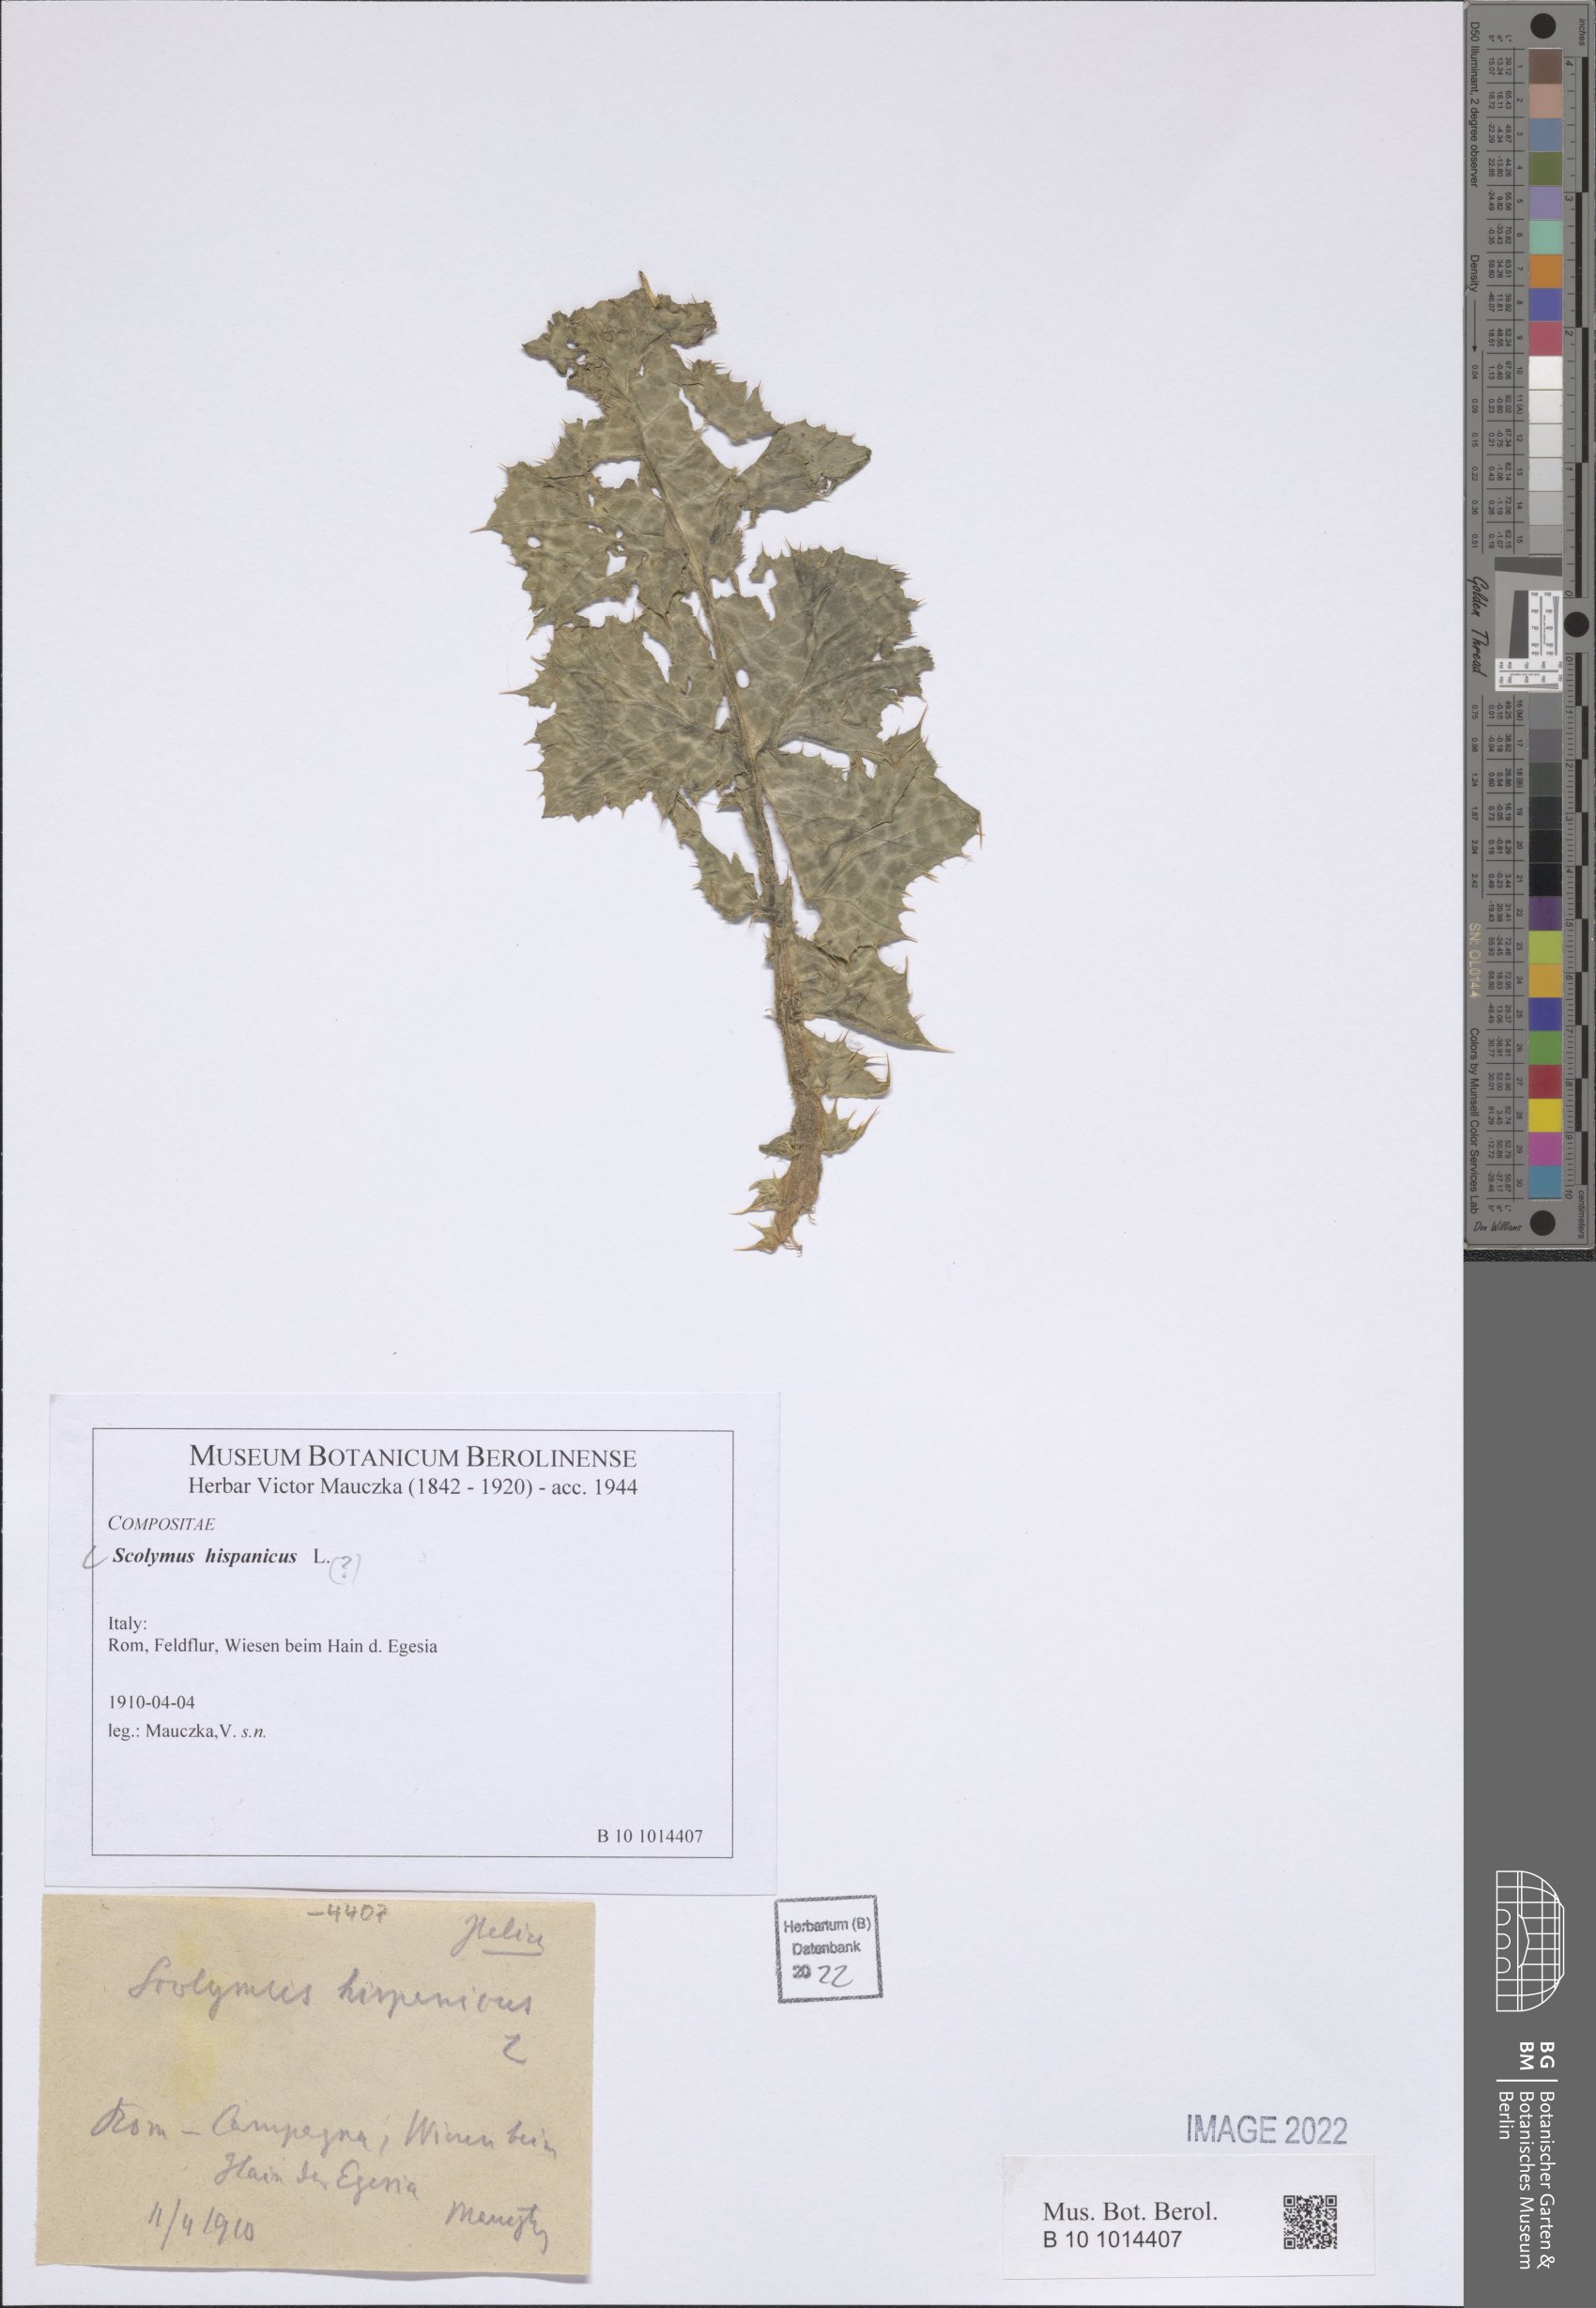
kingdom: Plantae
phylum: Tracheophyta
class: Magnoliopsida
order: Asterales
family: Asteraceae
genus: Scolymus
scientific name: Scolymus hispanicus
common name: Golden thistle
